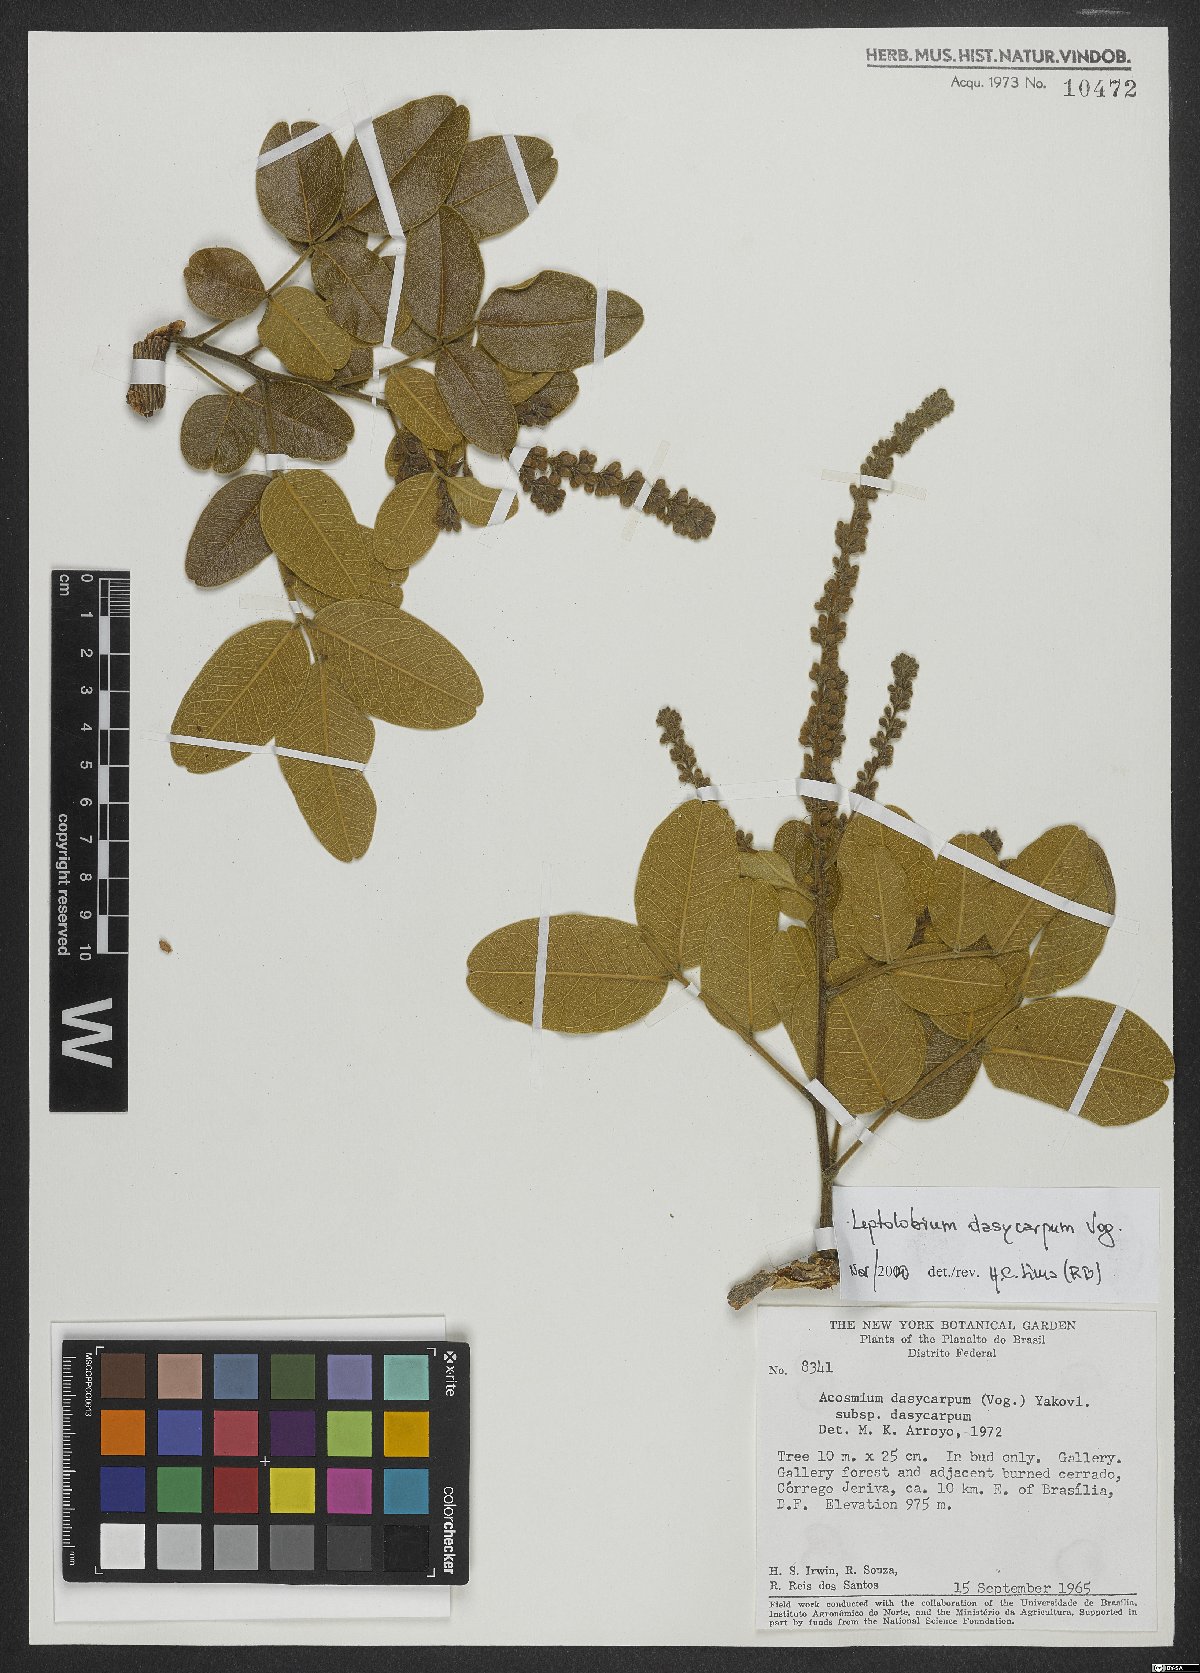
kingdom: Plantae
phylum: Tracheophyta
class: Magnoliopsida
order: Fabales
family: Fabaceae
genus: Leptolobium
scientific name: Leptolobium dasycarpum
